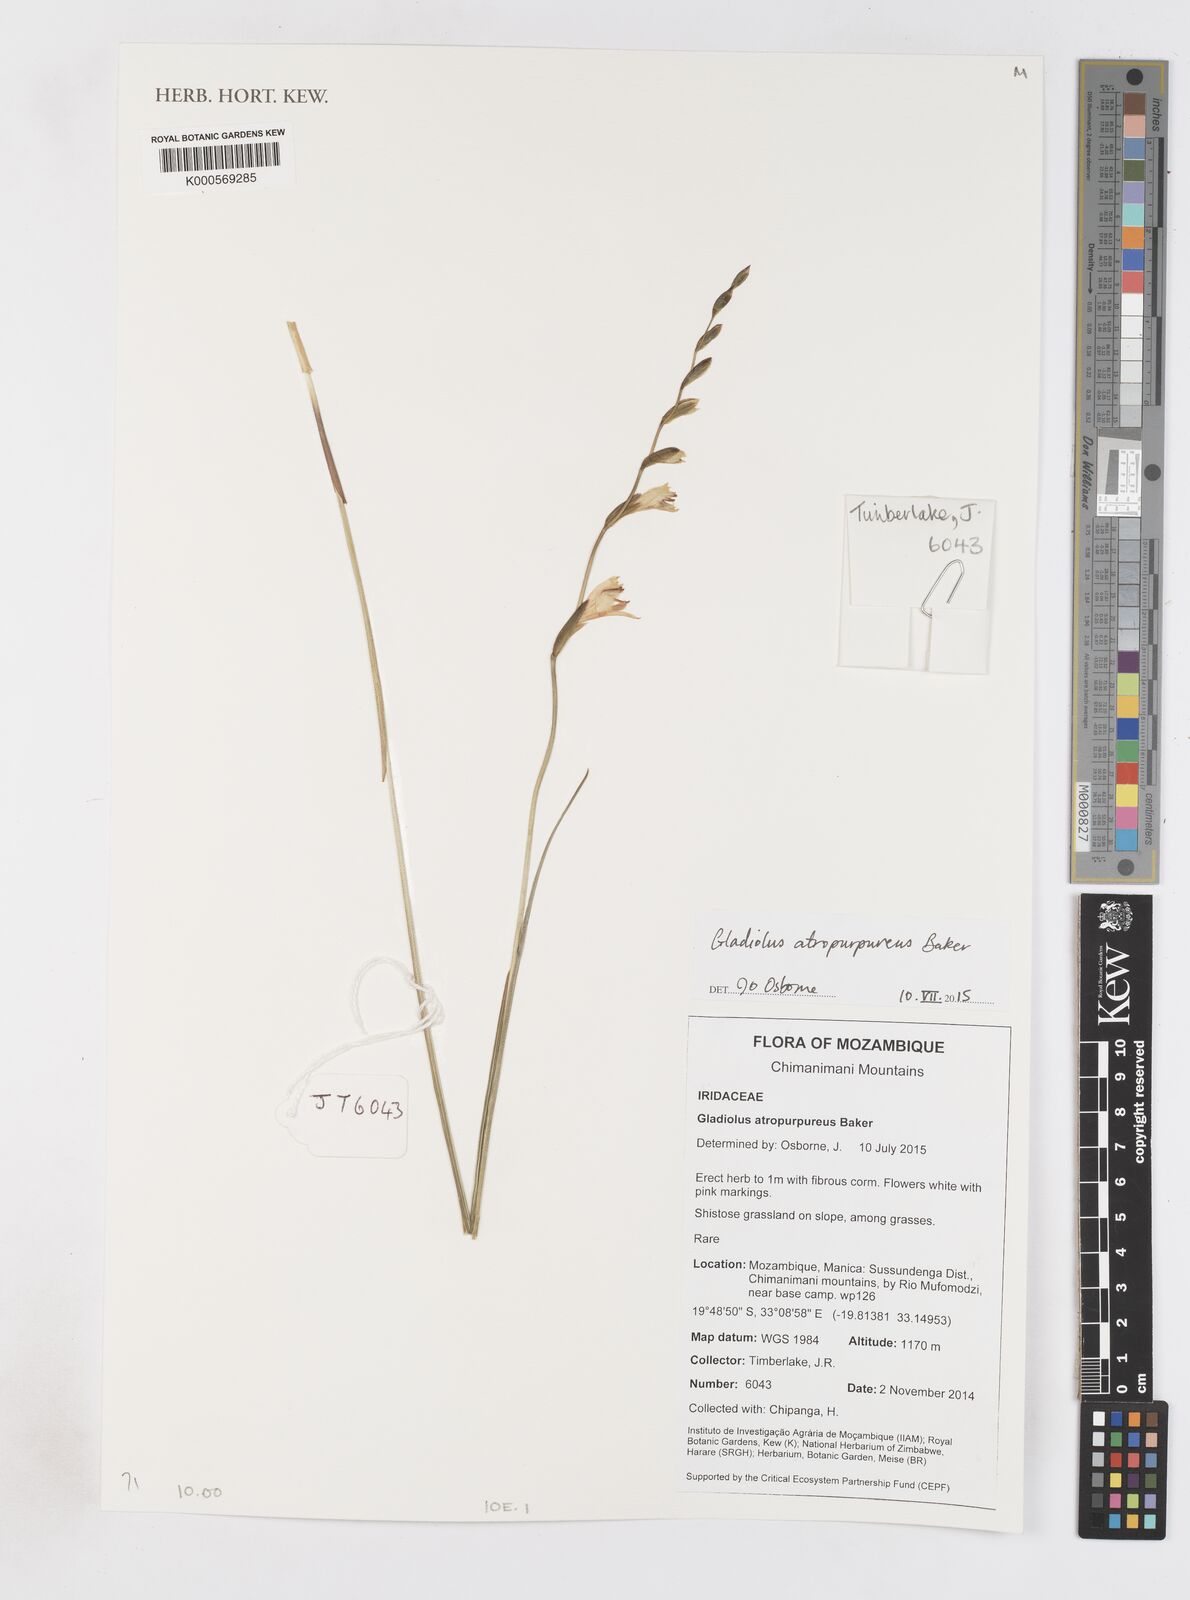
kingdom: Plantae
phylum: Tracheophyta
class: Liliopsida
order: Asparagales
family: Iridaceae
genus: Gladiolus
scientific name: Gladiolus atropurpureus
